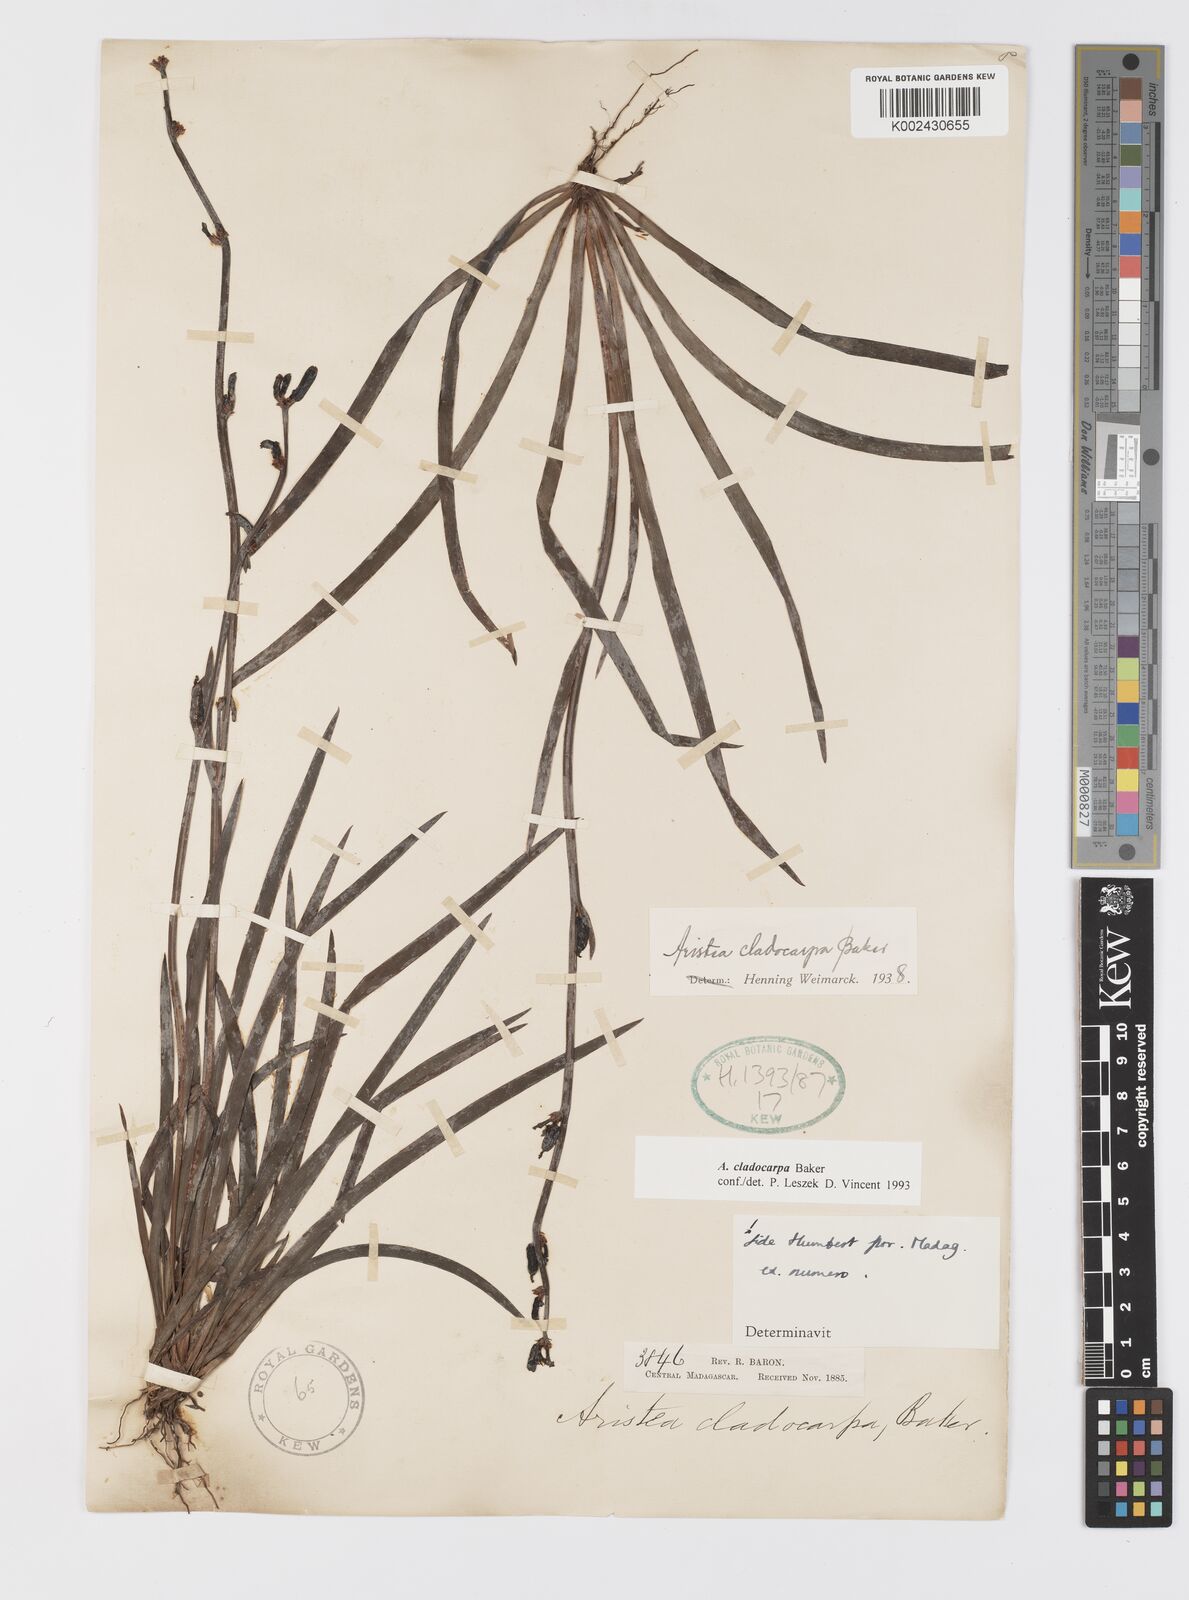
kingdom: Plantae
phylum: Tracheophyta
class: Liliopsida
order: Asparagales
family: Iridaceae
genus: Aristea
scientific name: Aristea cladocarpa
